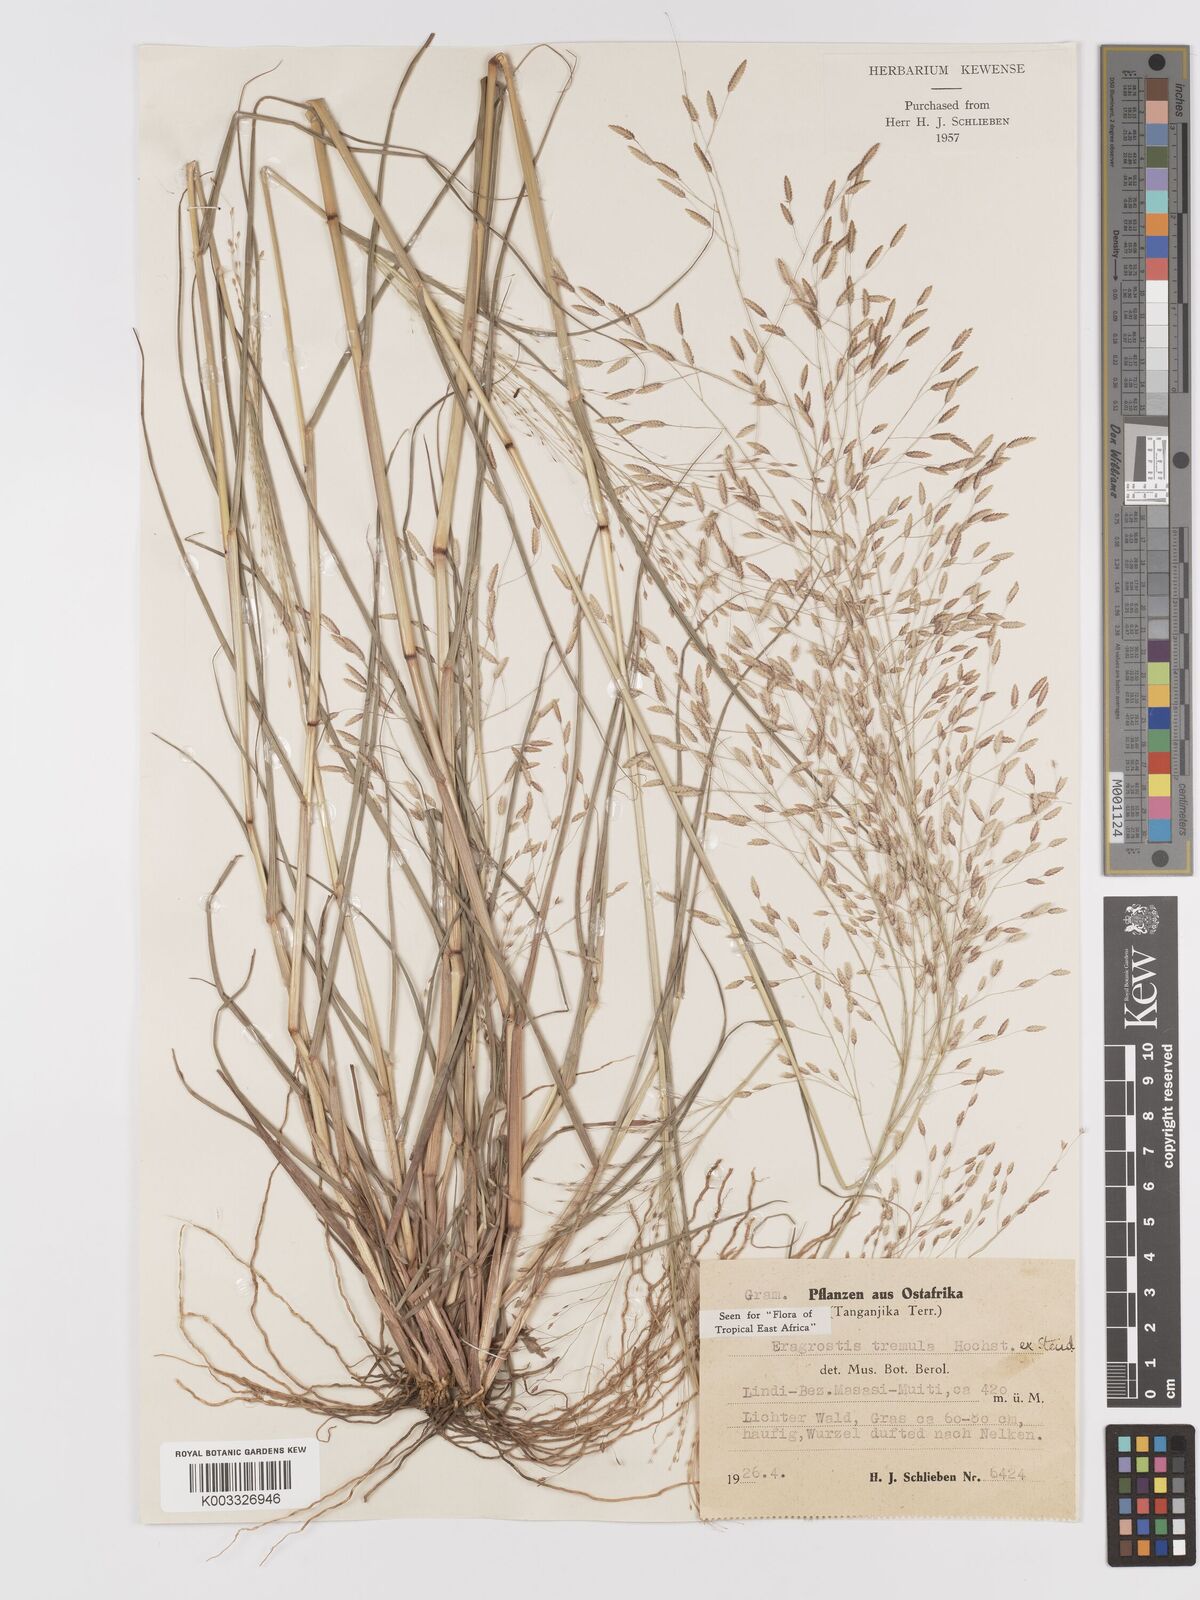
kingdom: Plantae
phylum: Tracheophyta
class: Liliopsida
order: Poales
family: Poaceae
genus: Eragrostis
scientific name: Eragrostis tremula
